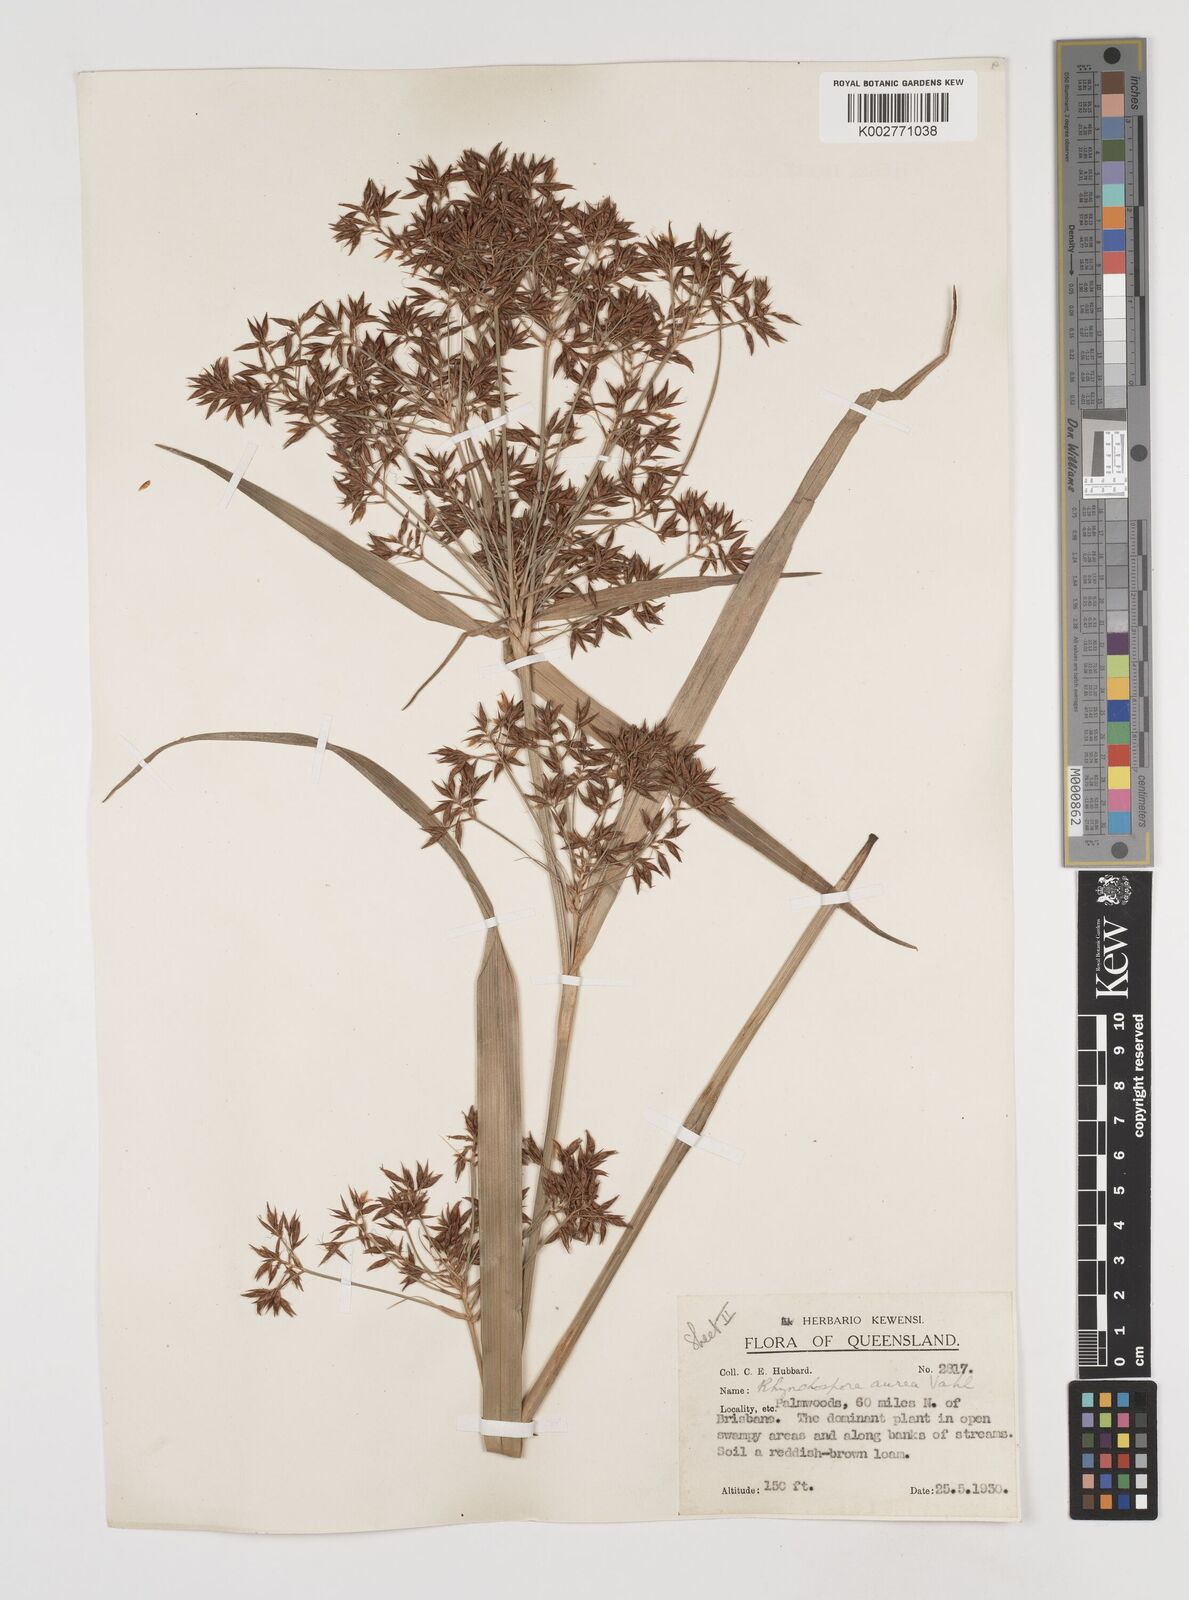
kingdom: Plantae
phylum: Tracheophyta
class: Liliopsida
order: Poales
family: Cyperaceae
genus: Rhynchospora
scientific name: Rhynchospora corymbosa
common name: Golden beak sedge
